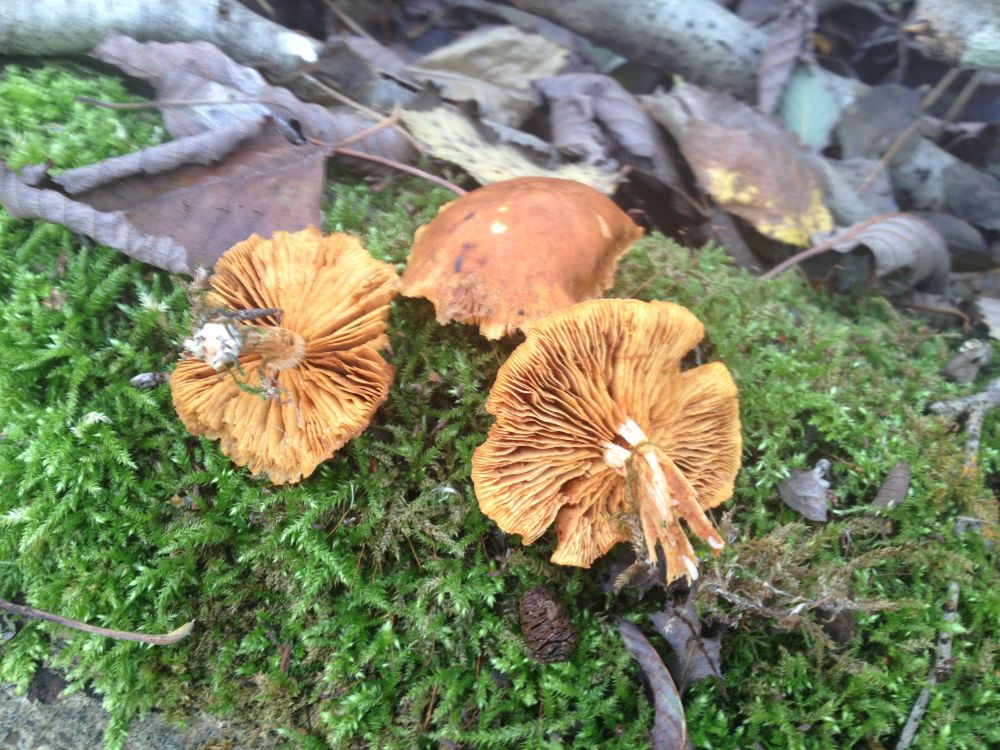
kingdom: Fungi
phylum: Basidiomycota
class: Agaricomycetes
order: Agaricales
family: Hymenogastraceae
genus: Gymnopilus
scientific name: Gymnopilus penetrans
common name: plettet flammehat
